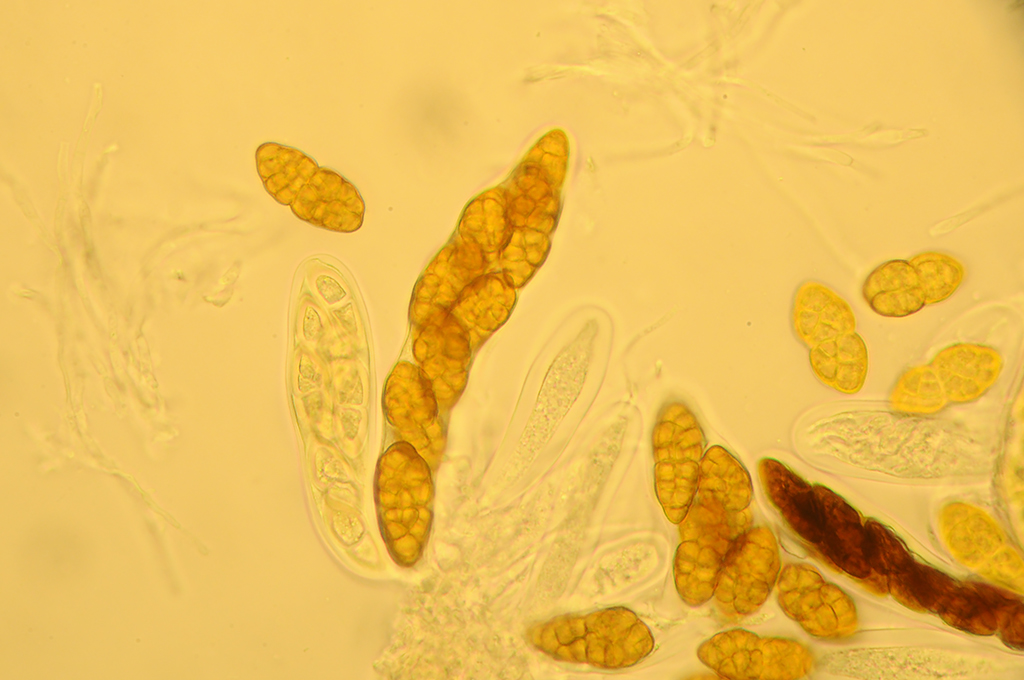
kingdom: Fungi
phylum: Ascomycota
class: Dothideomycetes
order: Pleosporales
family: Pleosporaceae
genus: Pleospora
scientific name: Pleospora
